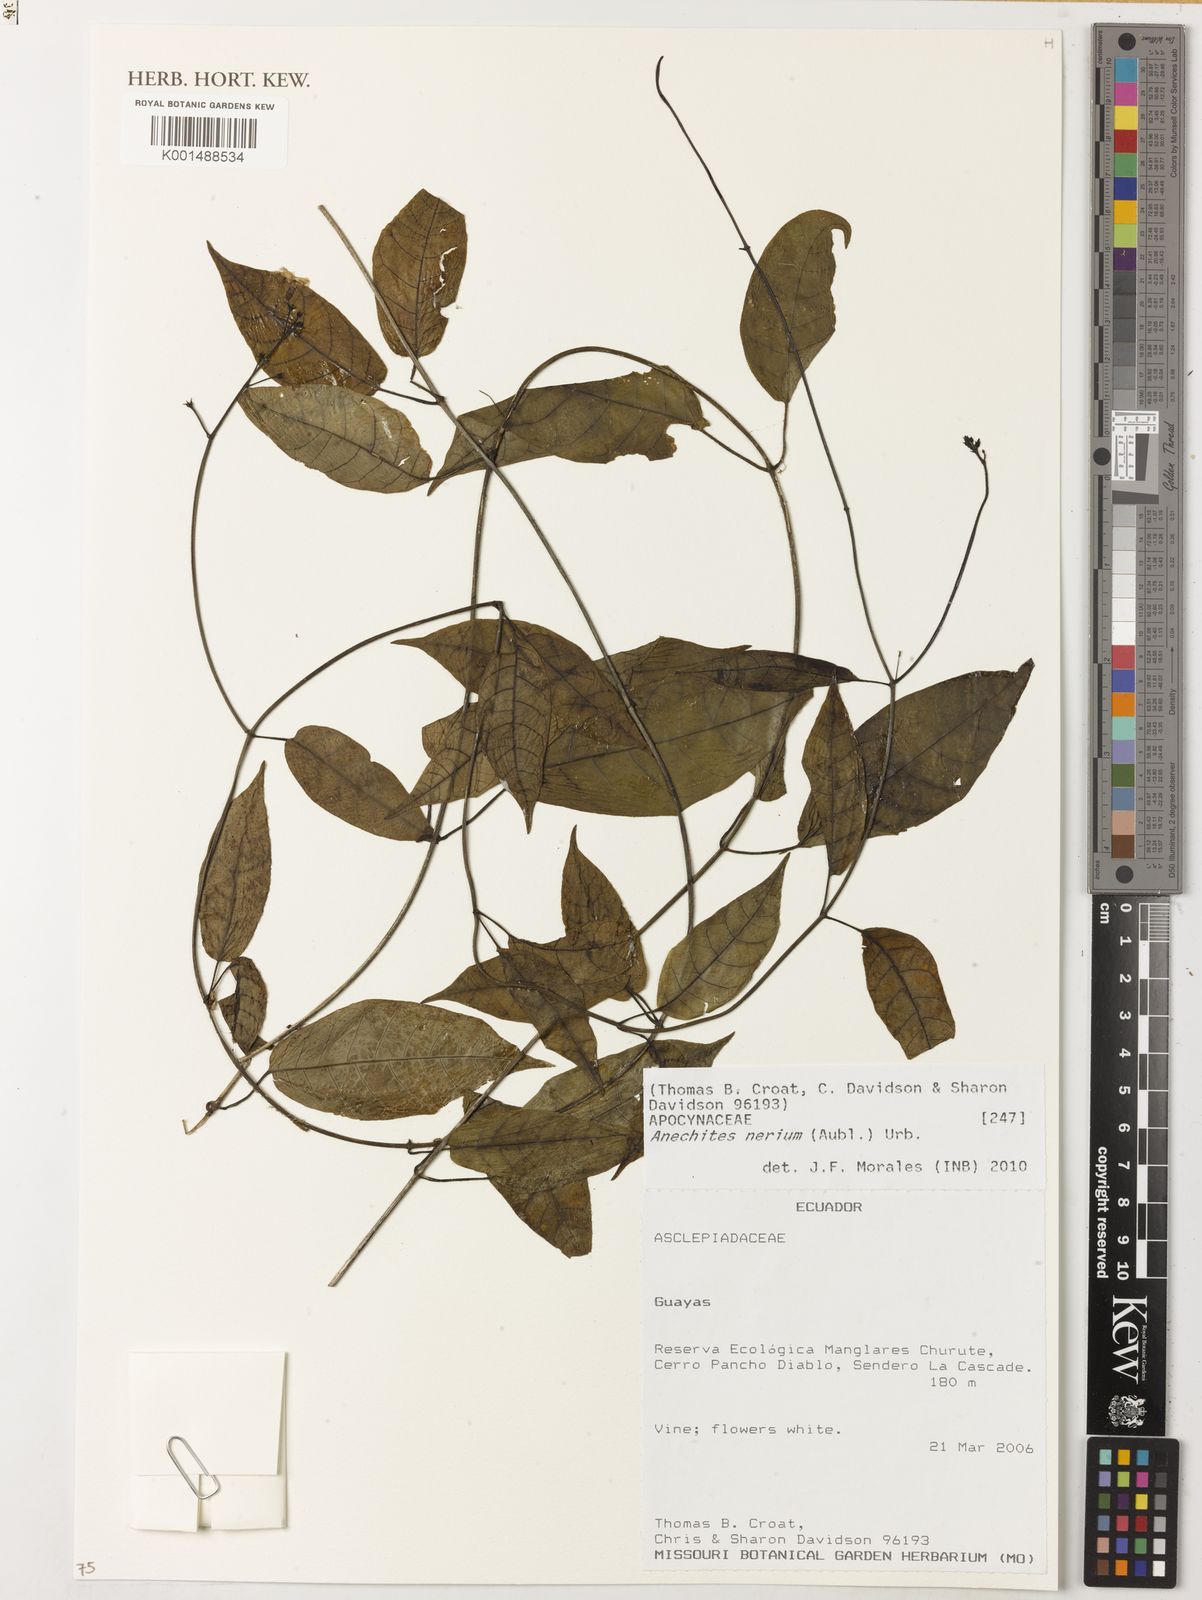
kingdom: Plantae
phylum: Tracheophyta
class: Magnoliopsida
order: Gentianales
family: Apocynaceae
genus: Anechites
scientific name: Anechites nerium
